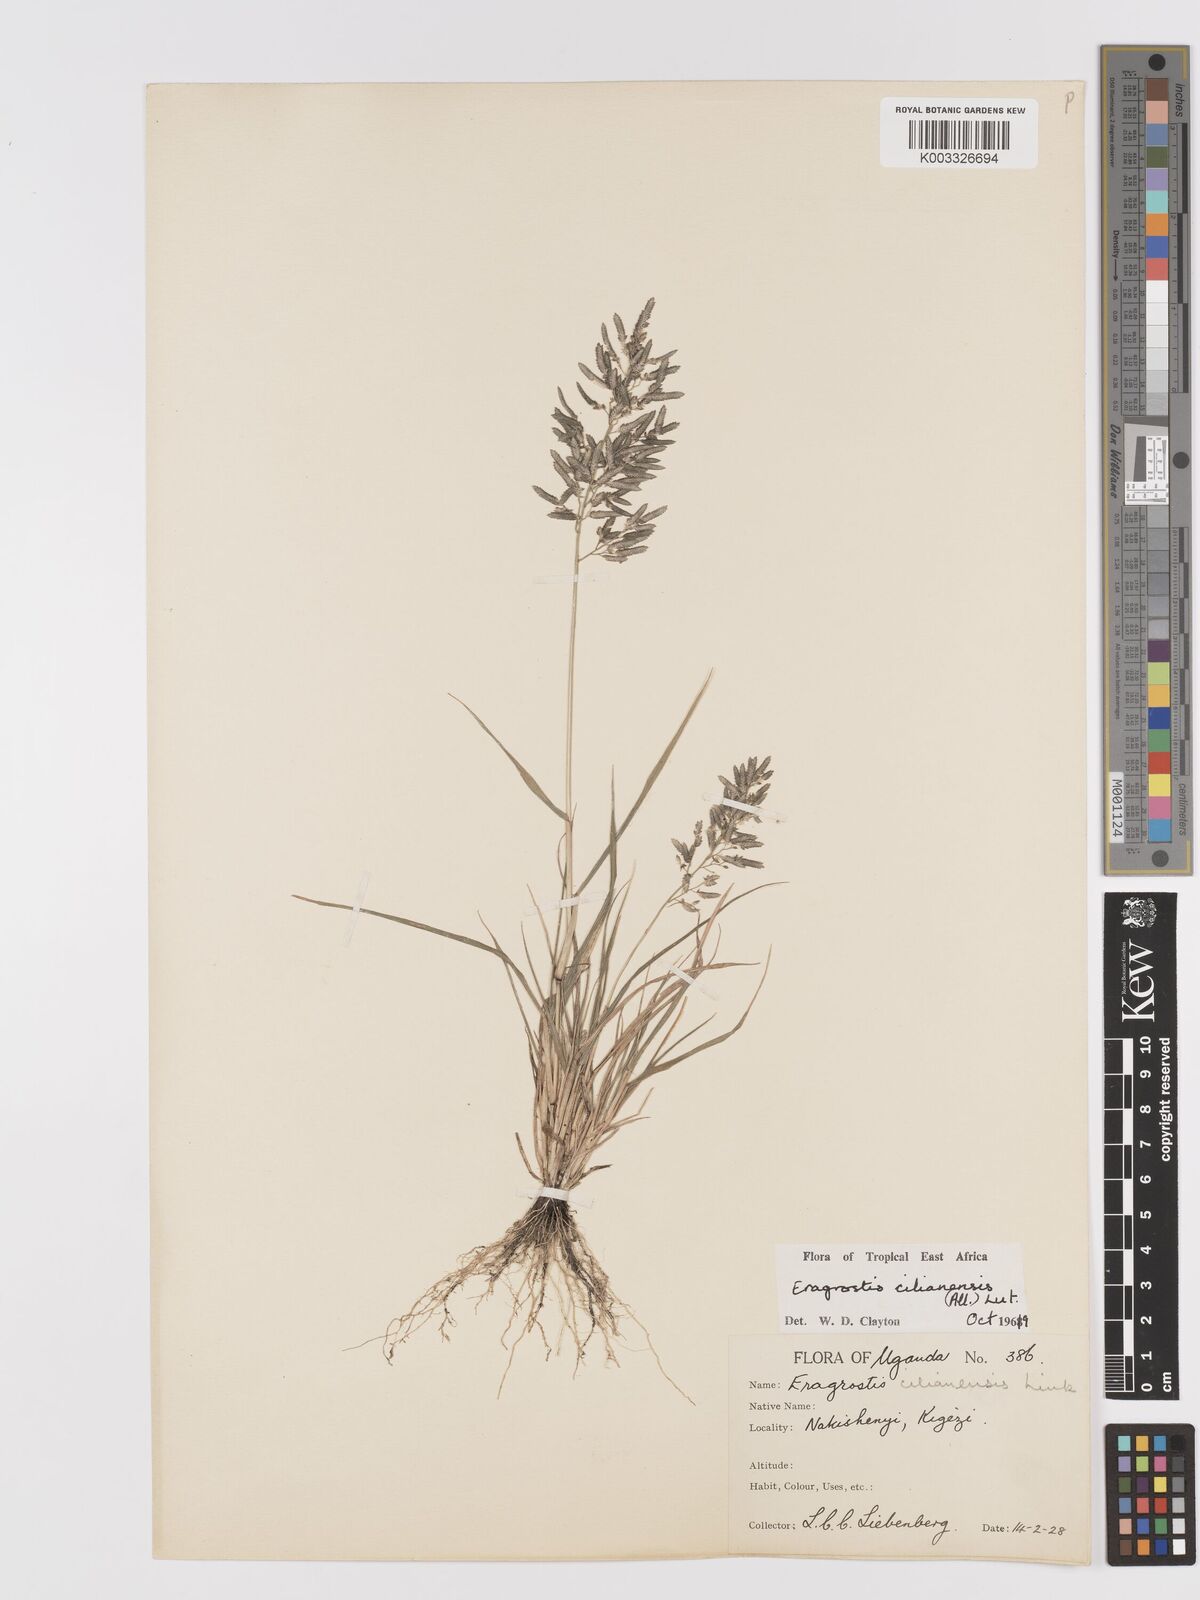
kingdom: Plantae
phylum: Tracheophyta
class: Liliopsida
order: Poales
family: Poaceae
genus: Eragrostis
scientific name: Eragrostis cilianensis
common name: Stinkgrass
